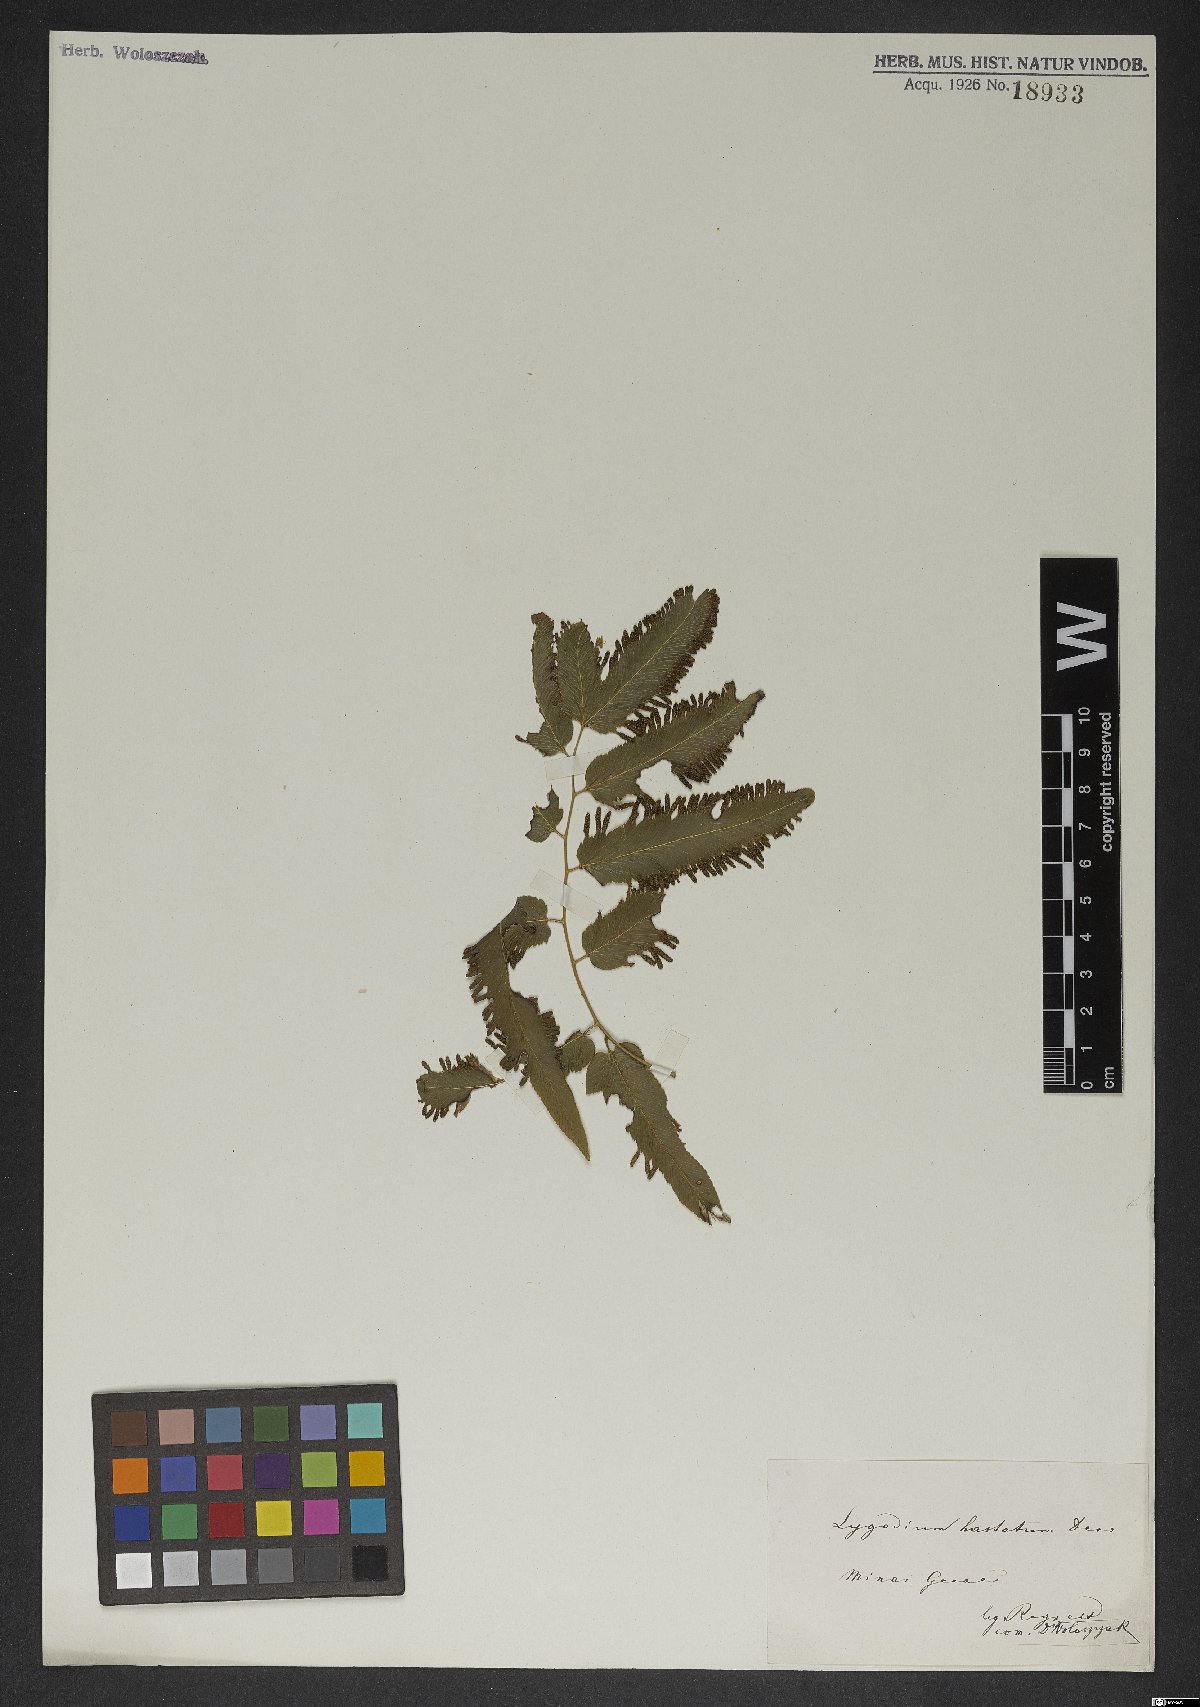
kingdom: Plantae
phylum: Tracheophyta
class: Polypodiopsida
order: Schizaeales
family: Lygodiaceae
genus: Lygodium
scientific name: Lygodium volubile
